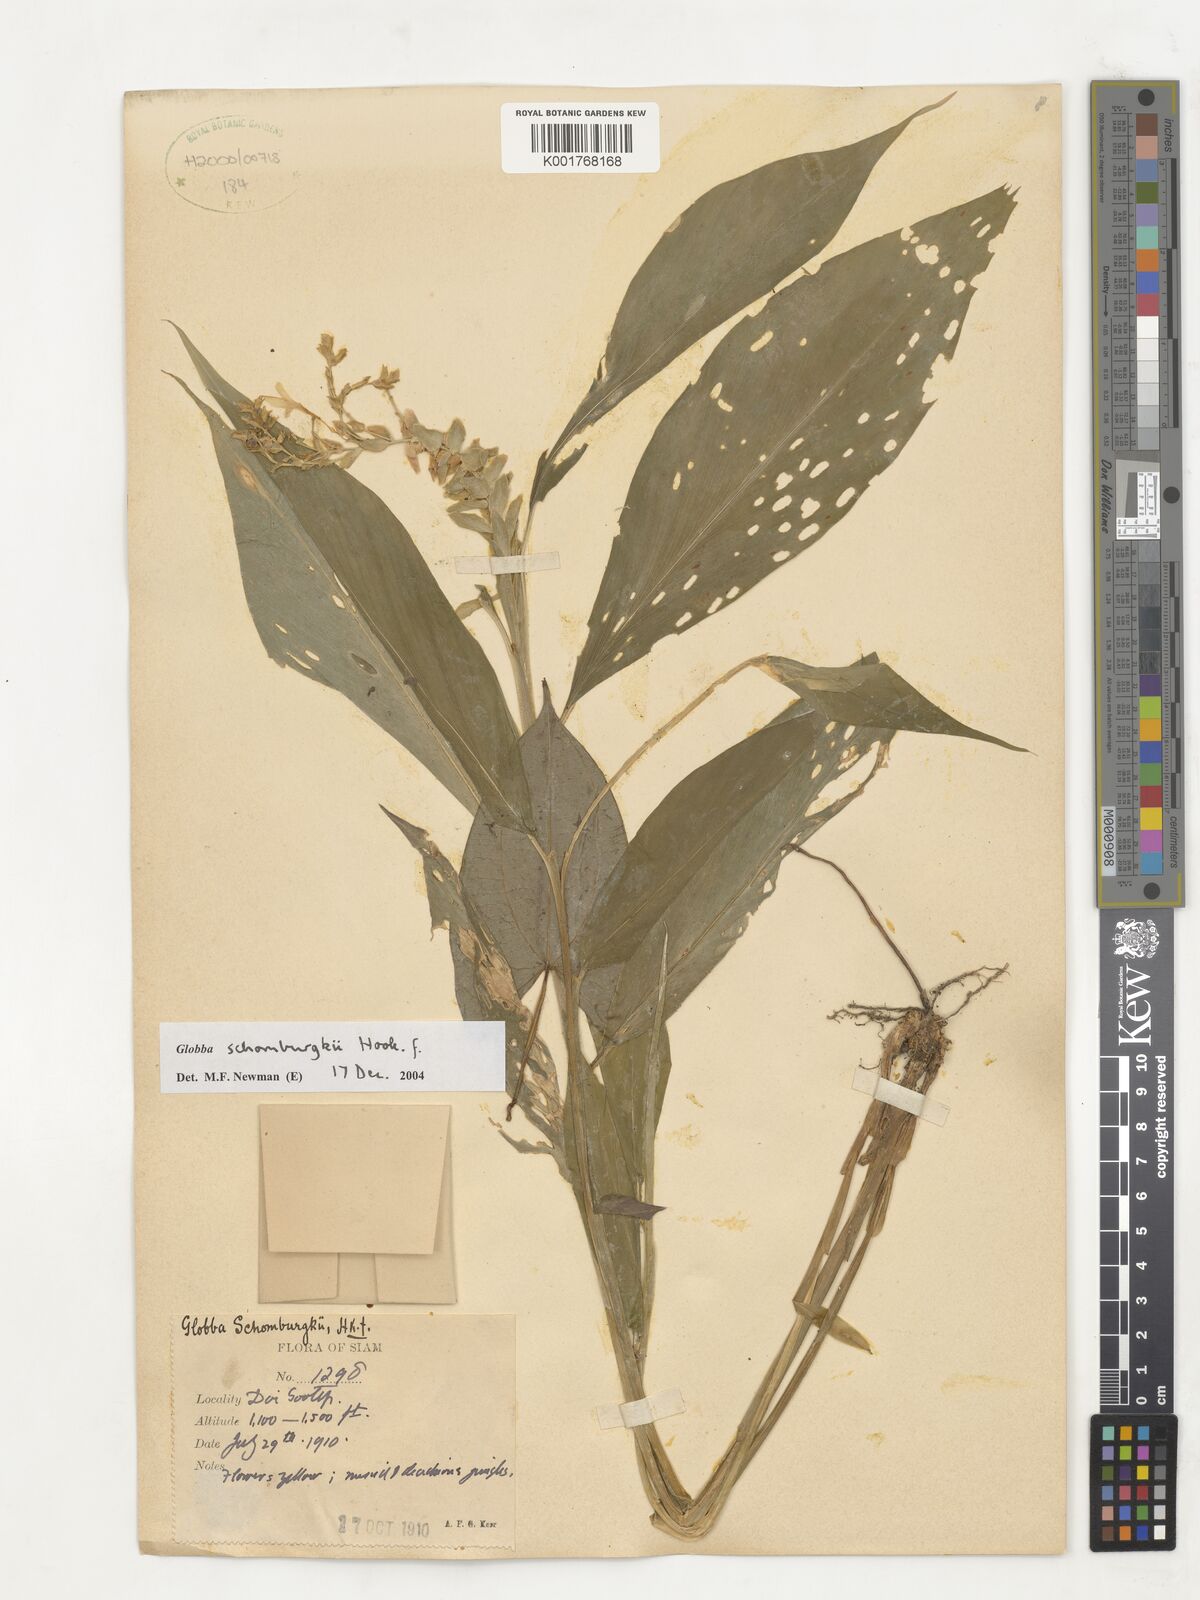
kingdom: Plantae
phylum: Tracheophyta
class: Liliopsida
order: Zingiberales
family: Zingiberaceae
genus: Globba
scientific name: Globba schomburgkii
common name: Dancing girl ginger
